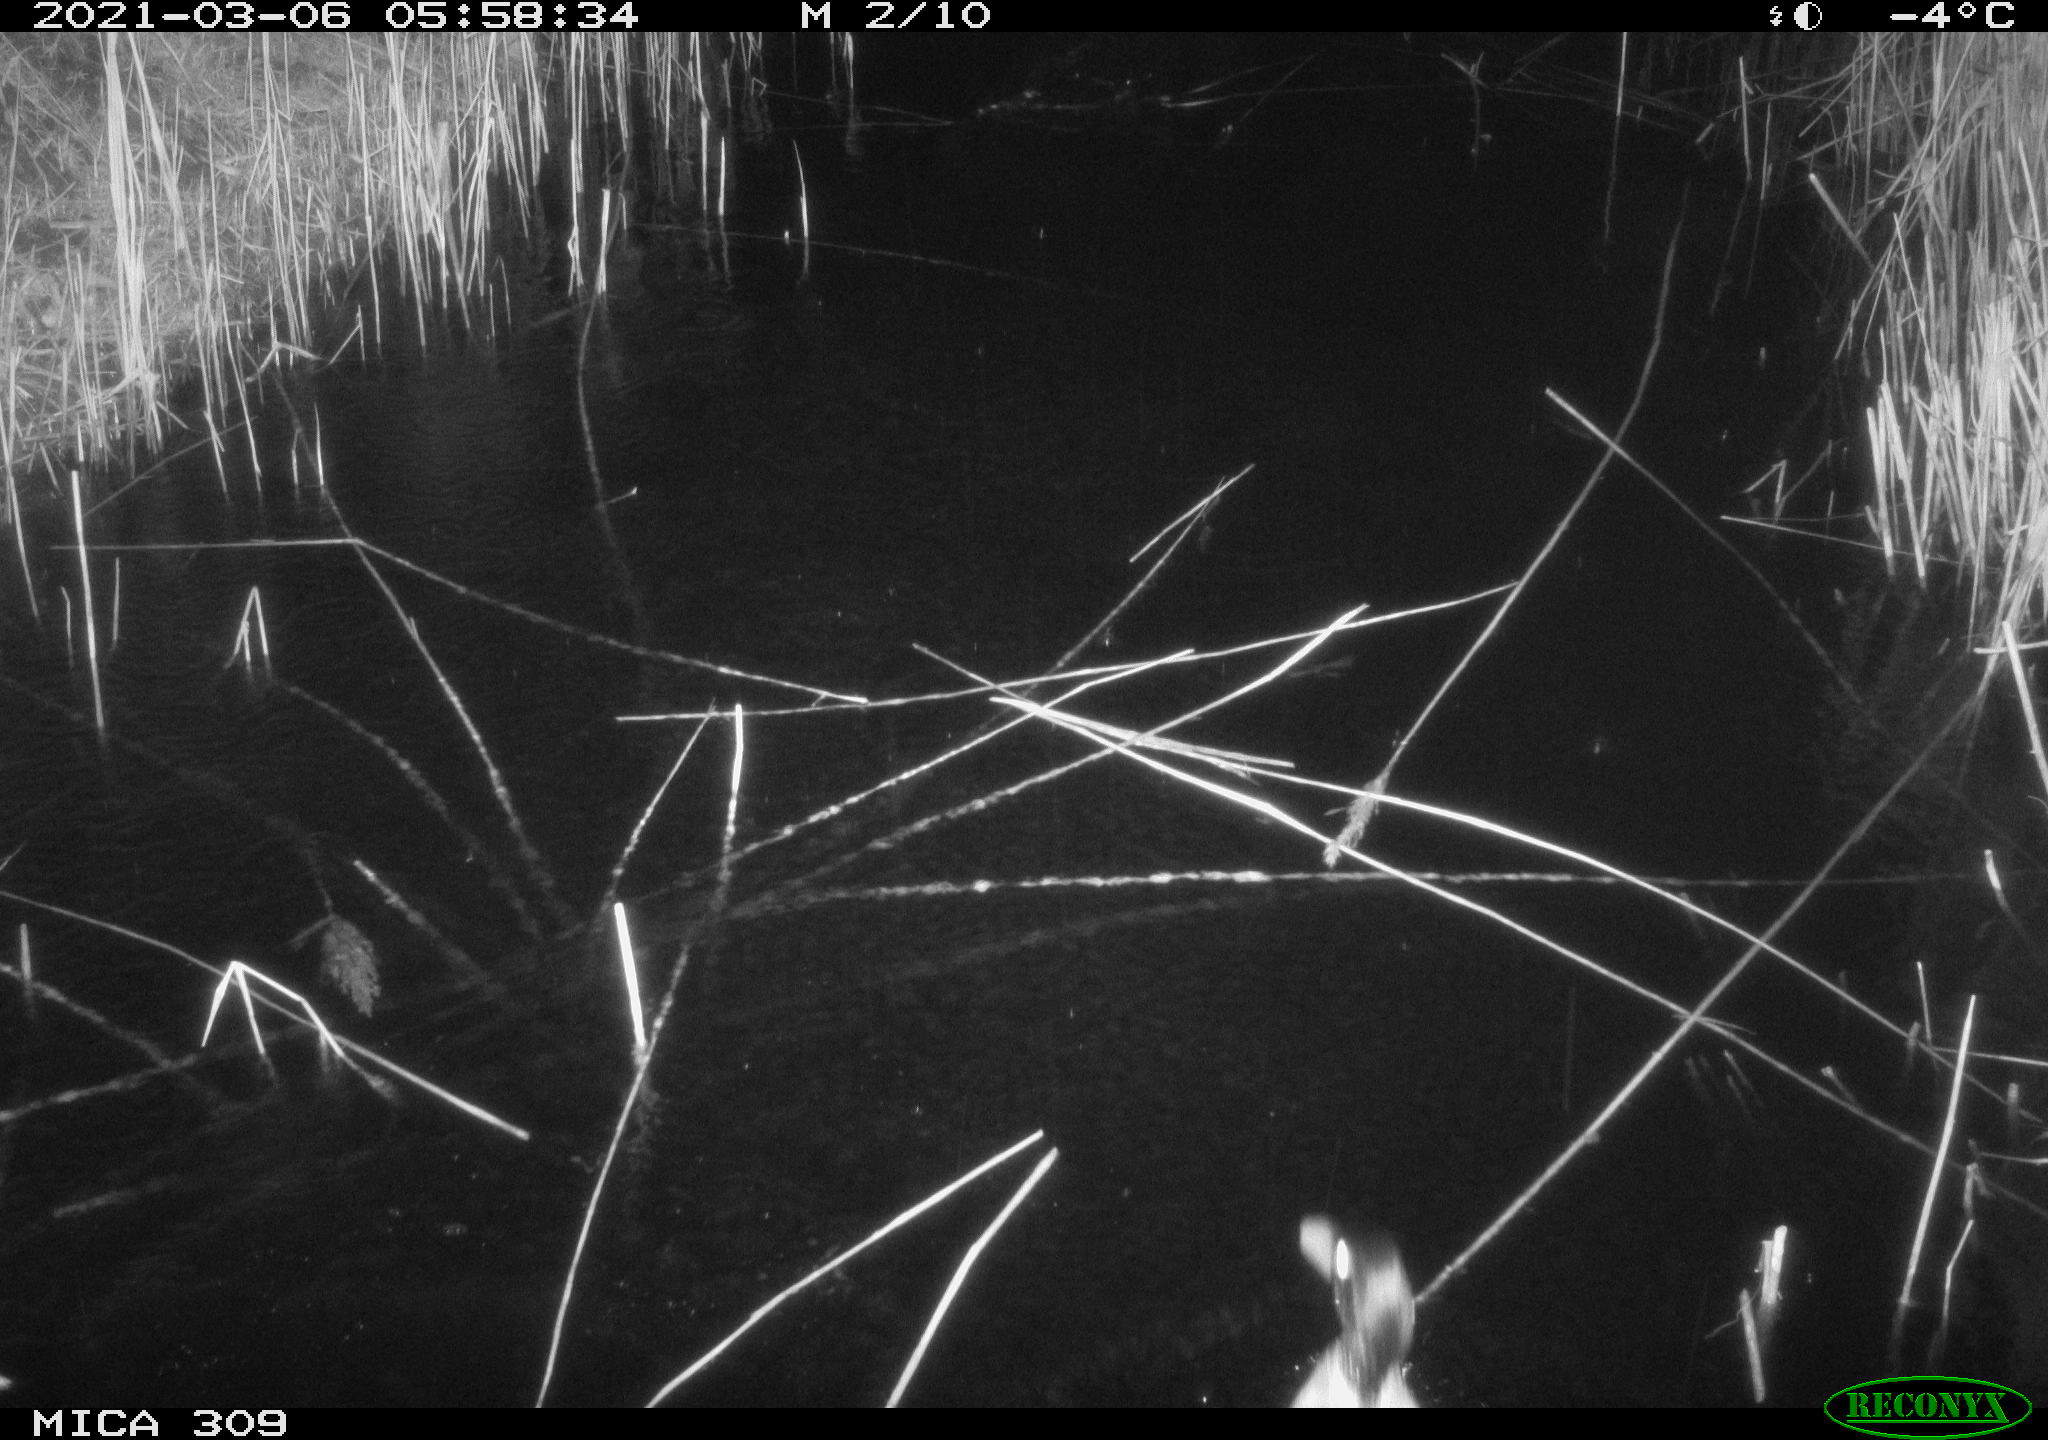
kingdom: Animalia
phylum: Chordata
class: Aves
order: Anseriformes
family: Anatidae
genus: Anas
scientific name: Anas platyrhynchos
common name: Mallard
